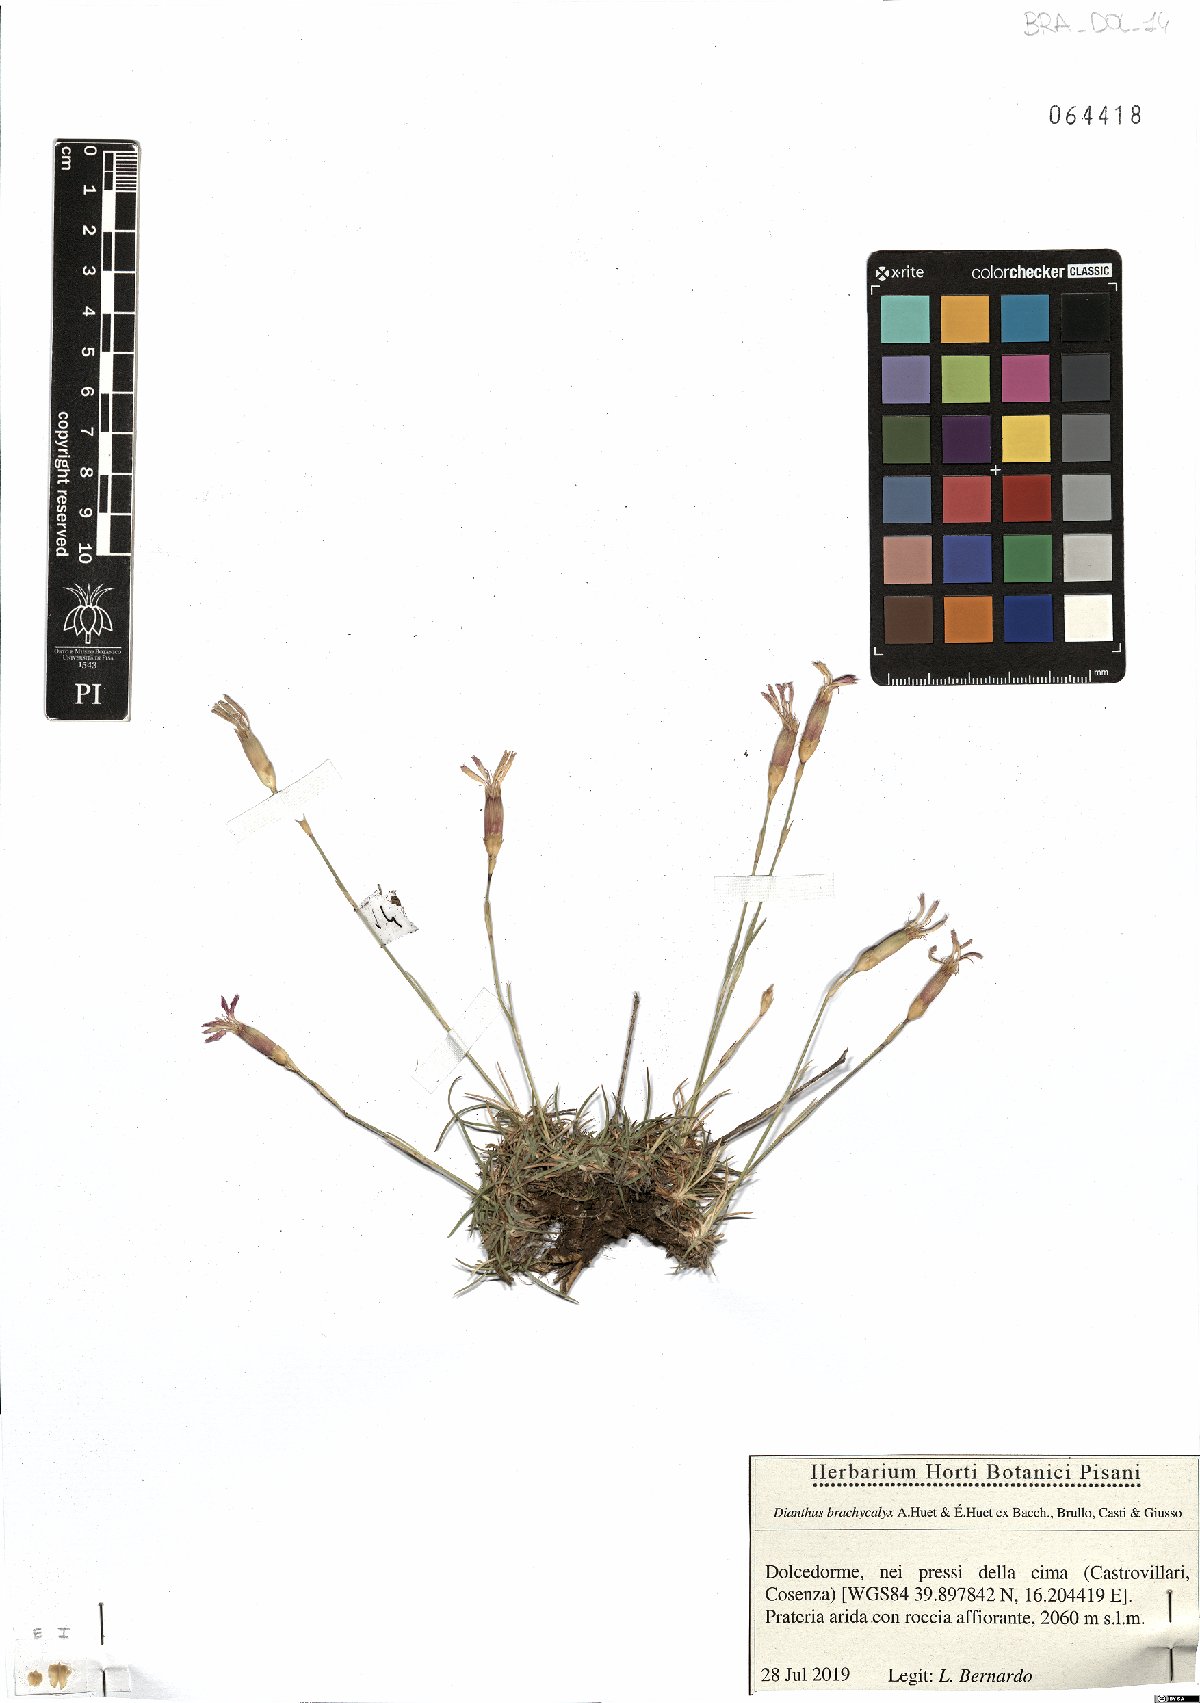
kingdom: Plantae
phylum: Tracheophyta
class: Magnoliopsida
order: Caryophyllales
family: Caryophyllaceae
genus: Dianthus
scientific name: Dianthus brachycalyx
